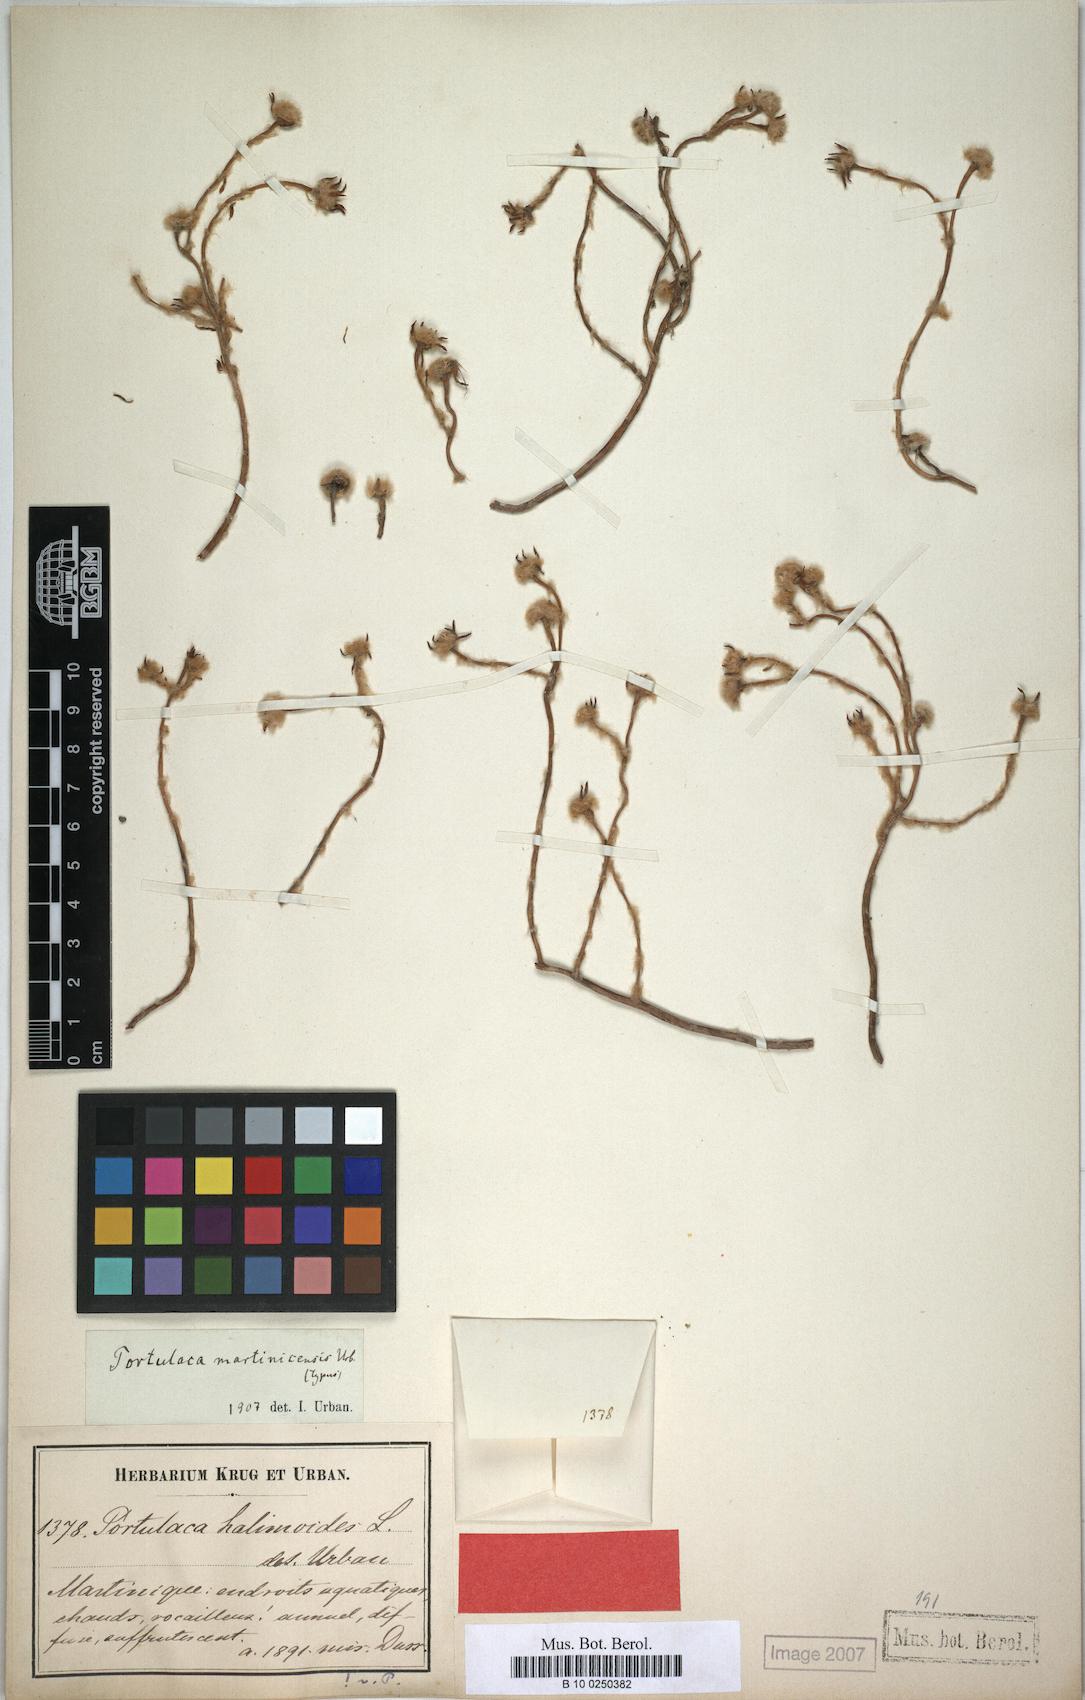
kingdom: Plantae
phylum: Tracheophyta
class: Magnoliopsida
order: Caryophyllales
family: Portulacaceae
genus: Portulaca
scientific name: Portulaca halimoides
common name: Silk cotton purslane
